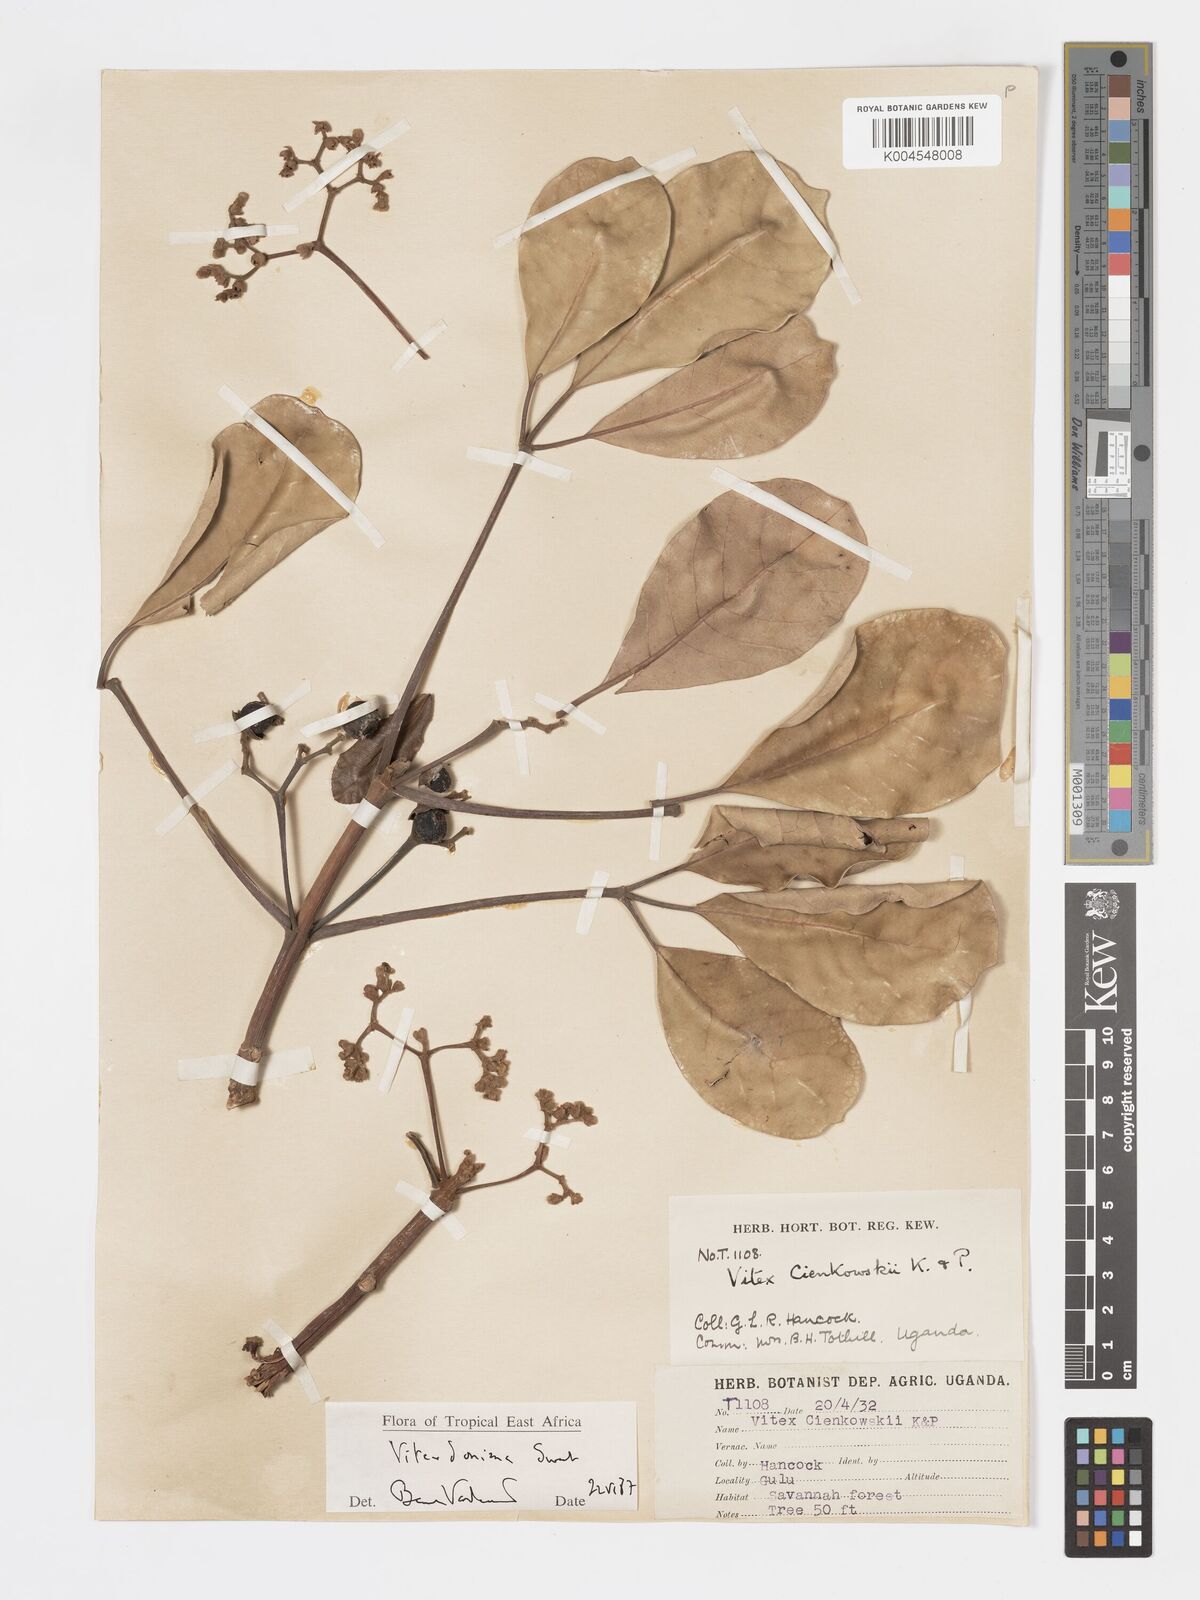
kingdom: Plantae
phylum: Tracheophyta
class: Magnoliopsida
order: Lamiales
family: Lamiaceae
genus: Vitex
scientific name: Vitex doniana
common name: Black plum
